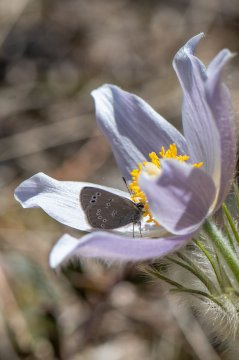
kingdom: Animalia
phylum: Arthropoda
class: Insecta
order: Lepidoptera
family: Lycaenidae
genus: Glaucopsyche
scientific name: Glaucopsyche lygdamus
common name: Silvery Blue
